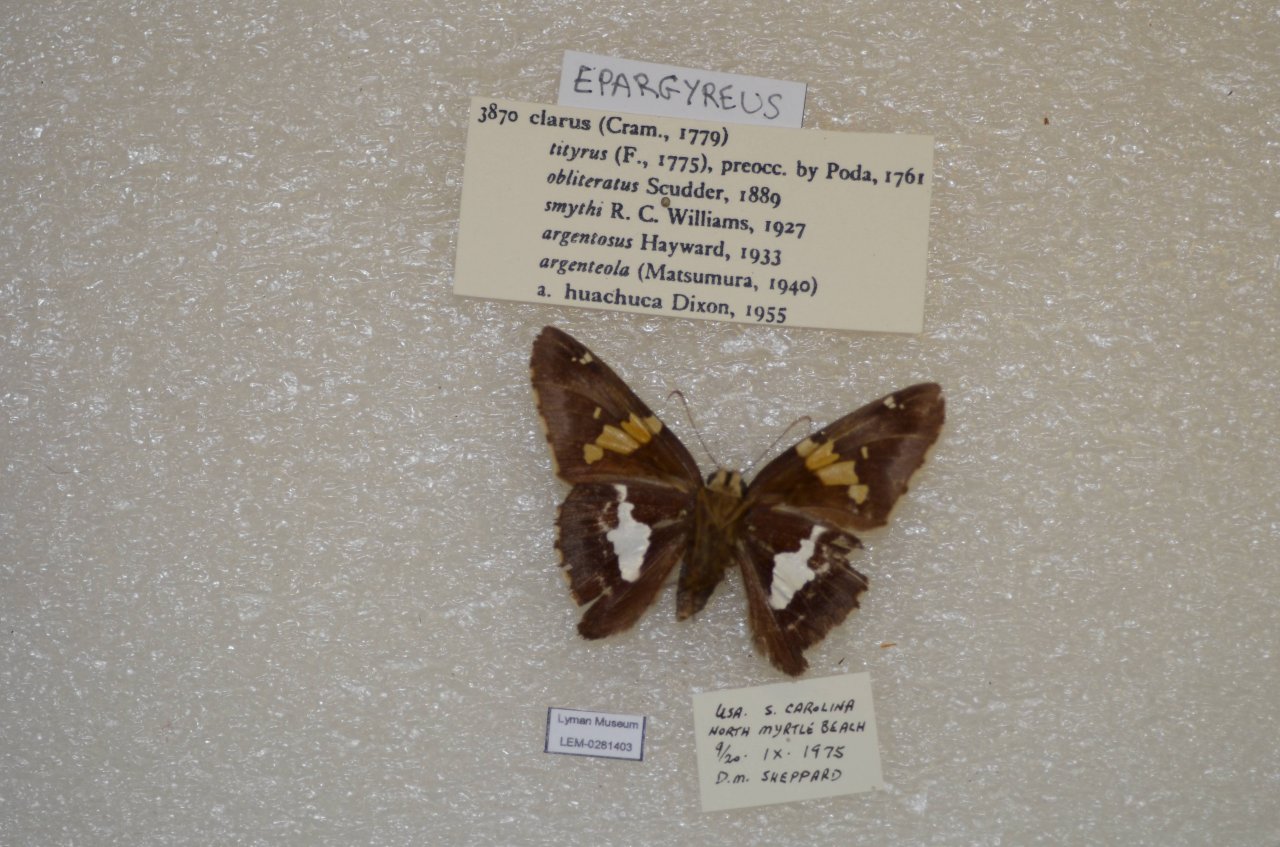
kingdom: Animalia
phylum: Arthropoda
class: Insecta
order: Lepidoptera
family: Hesperiidae
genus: Epargyreus
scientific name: Epargyreus clarus
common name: Silver-spotted Skipper
